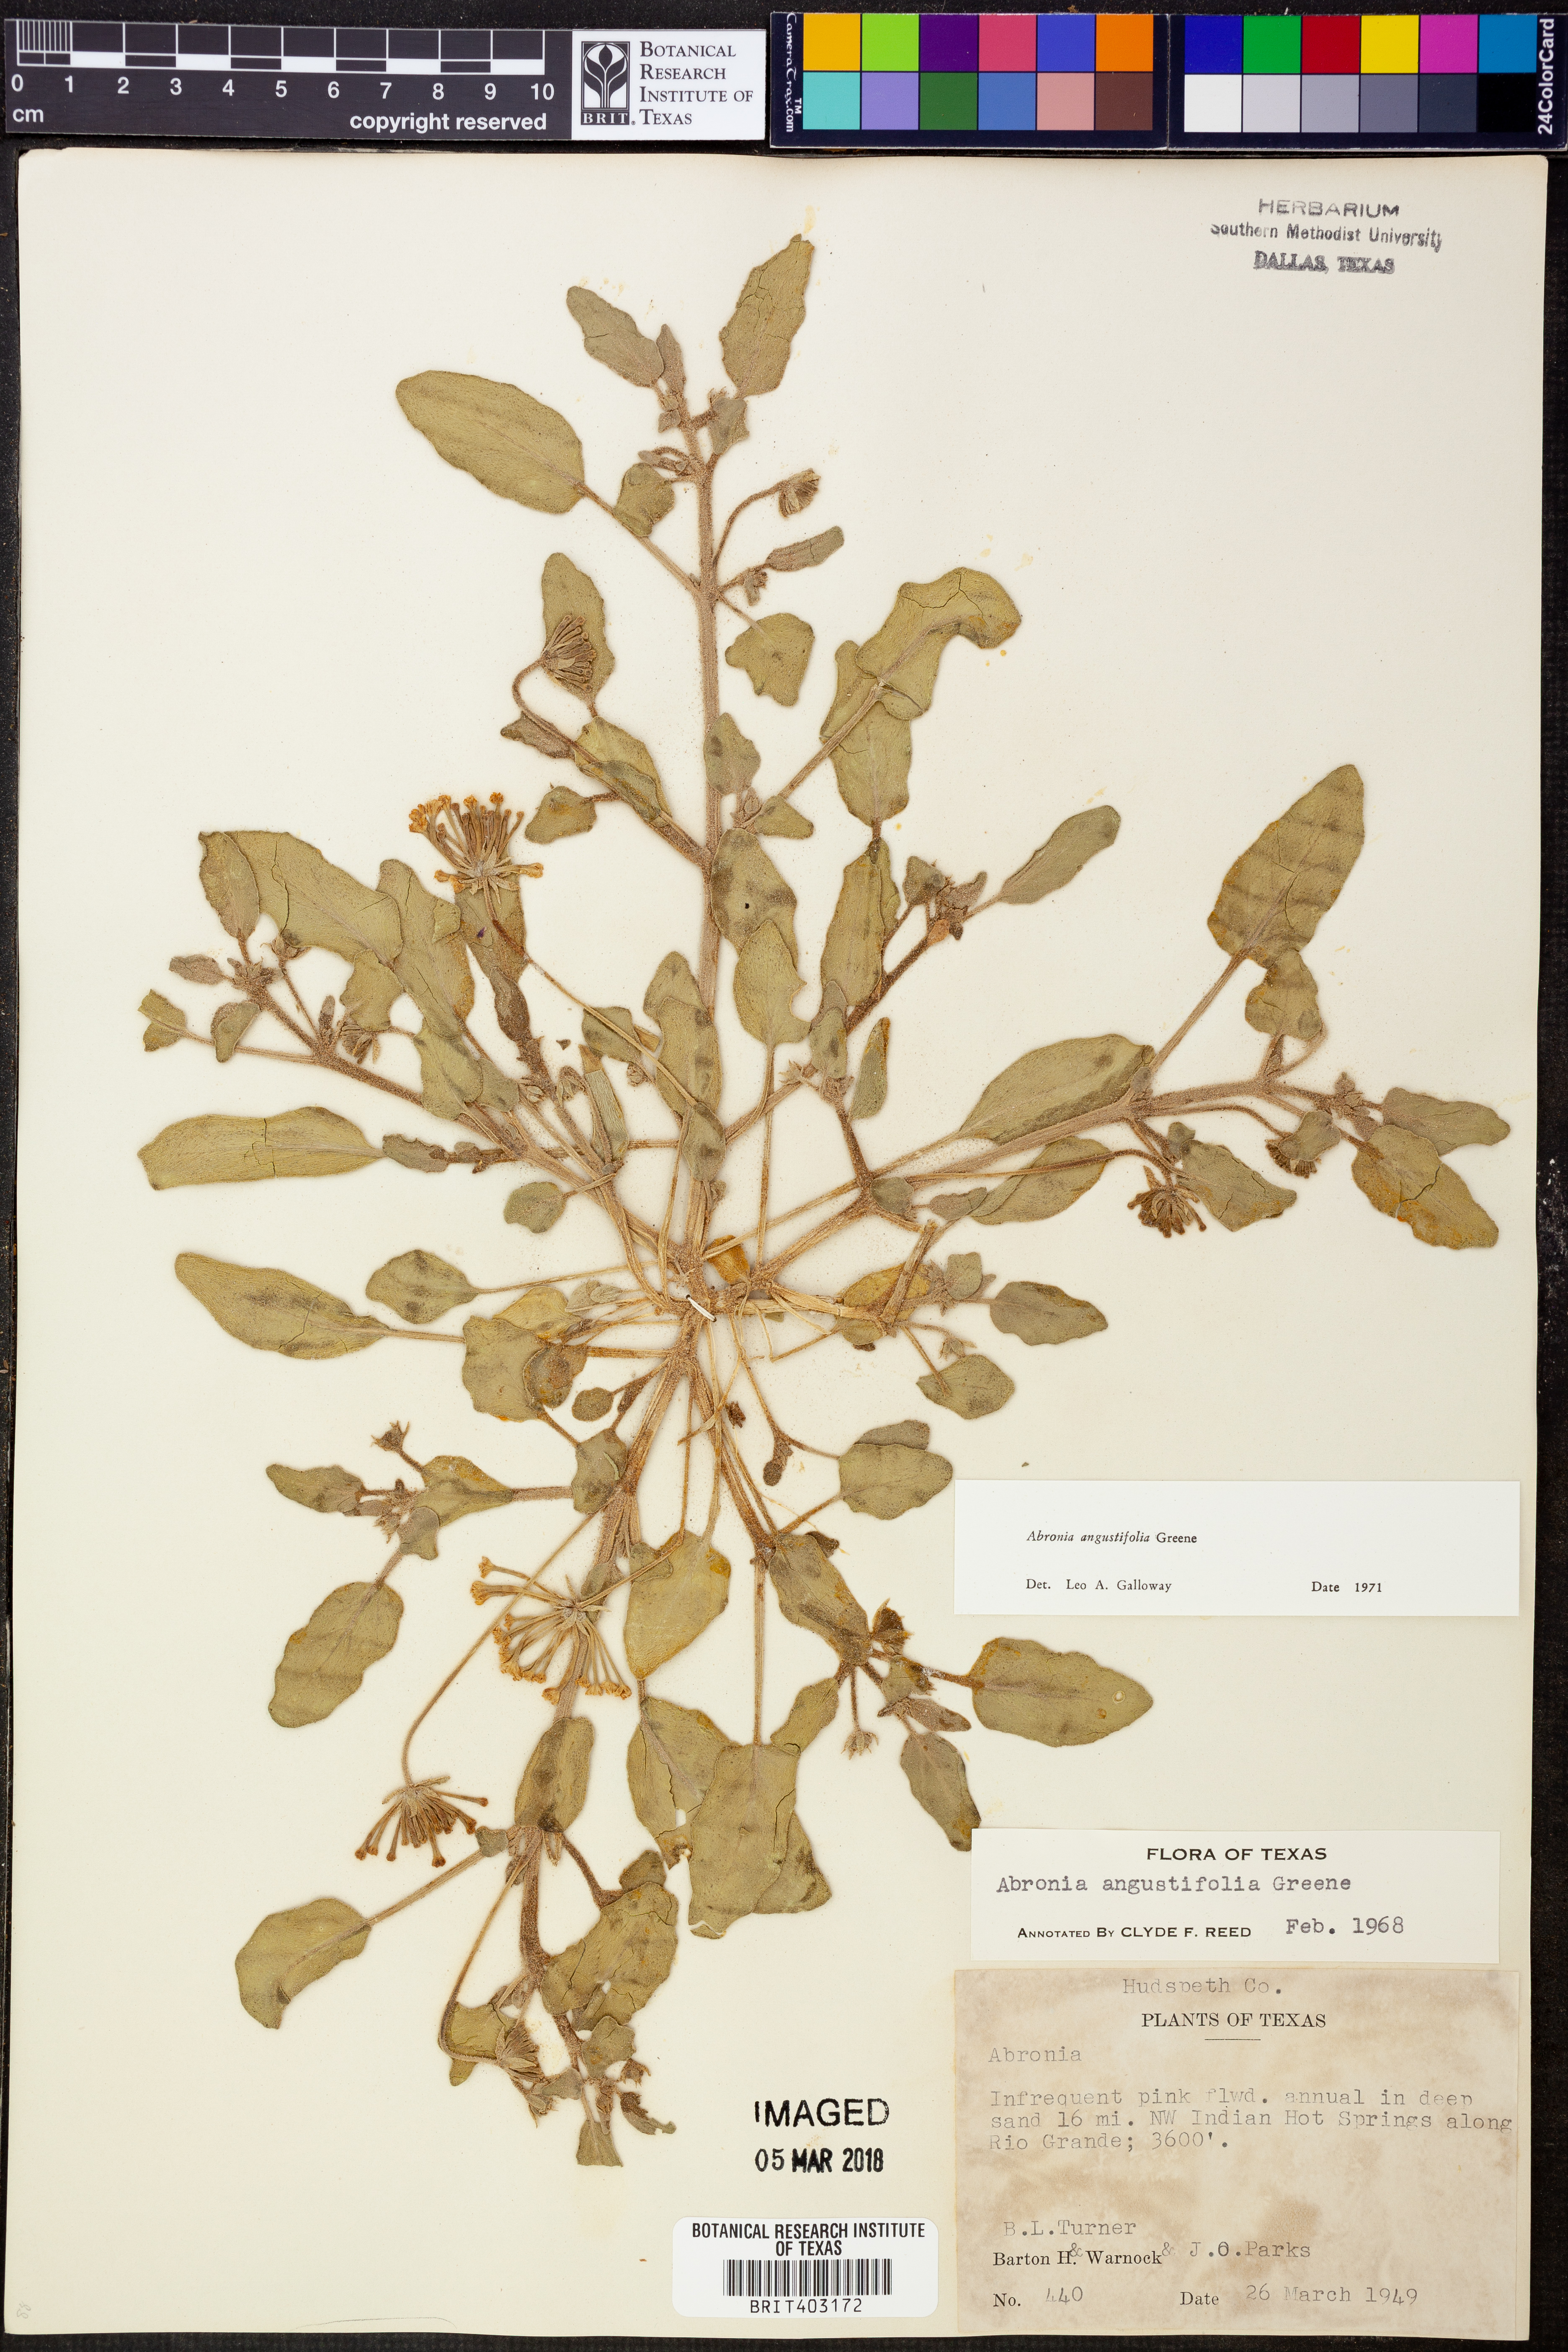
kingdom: Plantae
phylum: Tracheophyta
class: Magnoliopsida
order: Caryophyllales
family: Nyctaginaceae
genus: Abronia
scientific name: Abronia angustifolia
